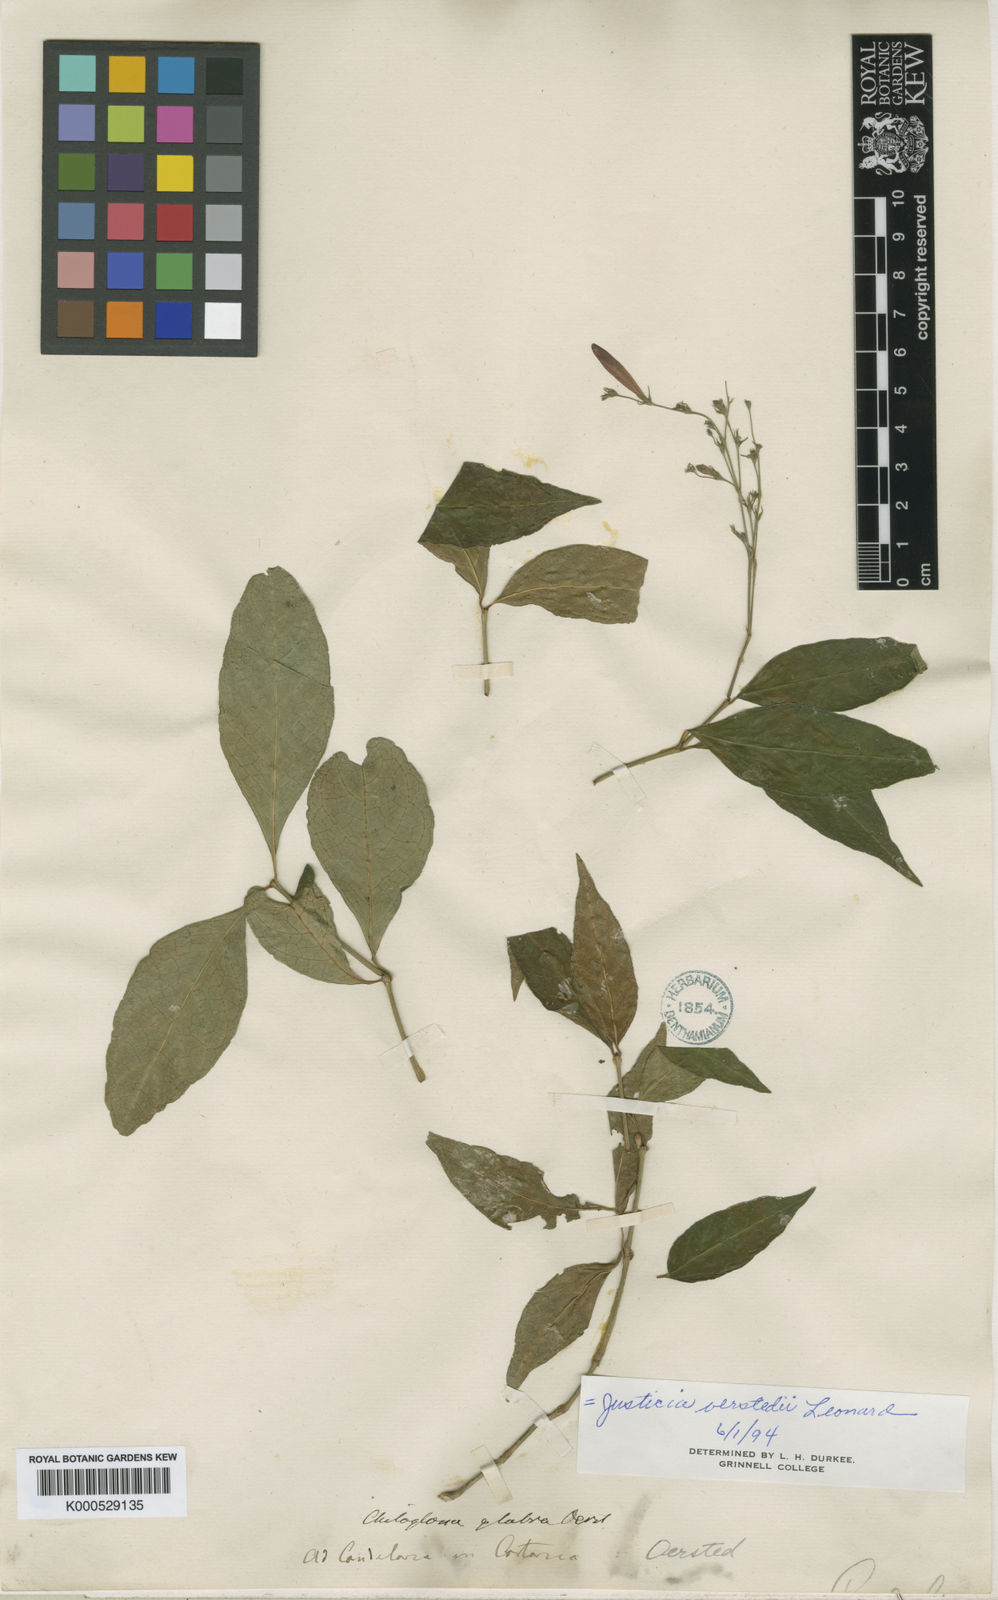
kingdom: Plantae
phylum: Tracheophyta
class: Magnoliopsida
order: Lamiales
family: Acanthaceae
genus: Dianthera
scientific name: Dianthera glabra
